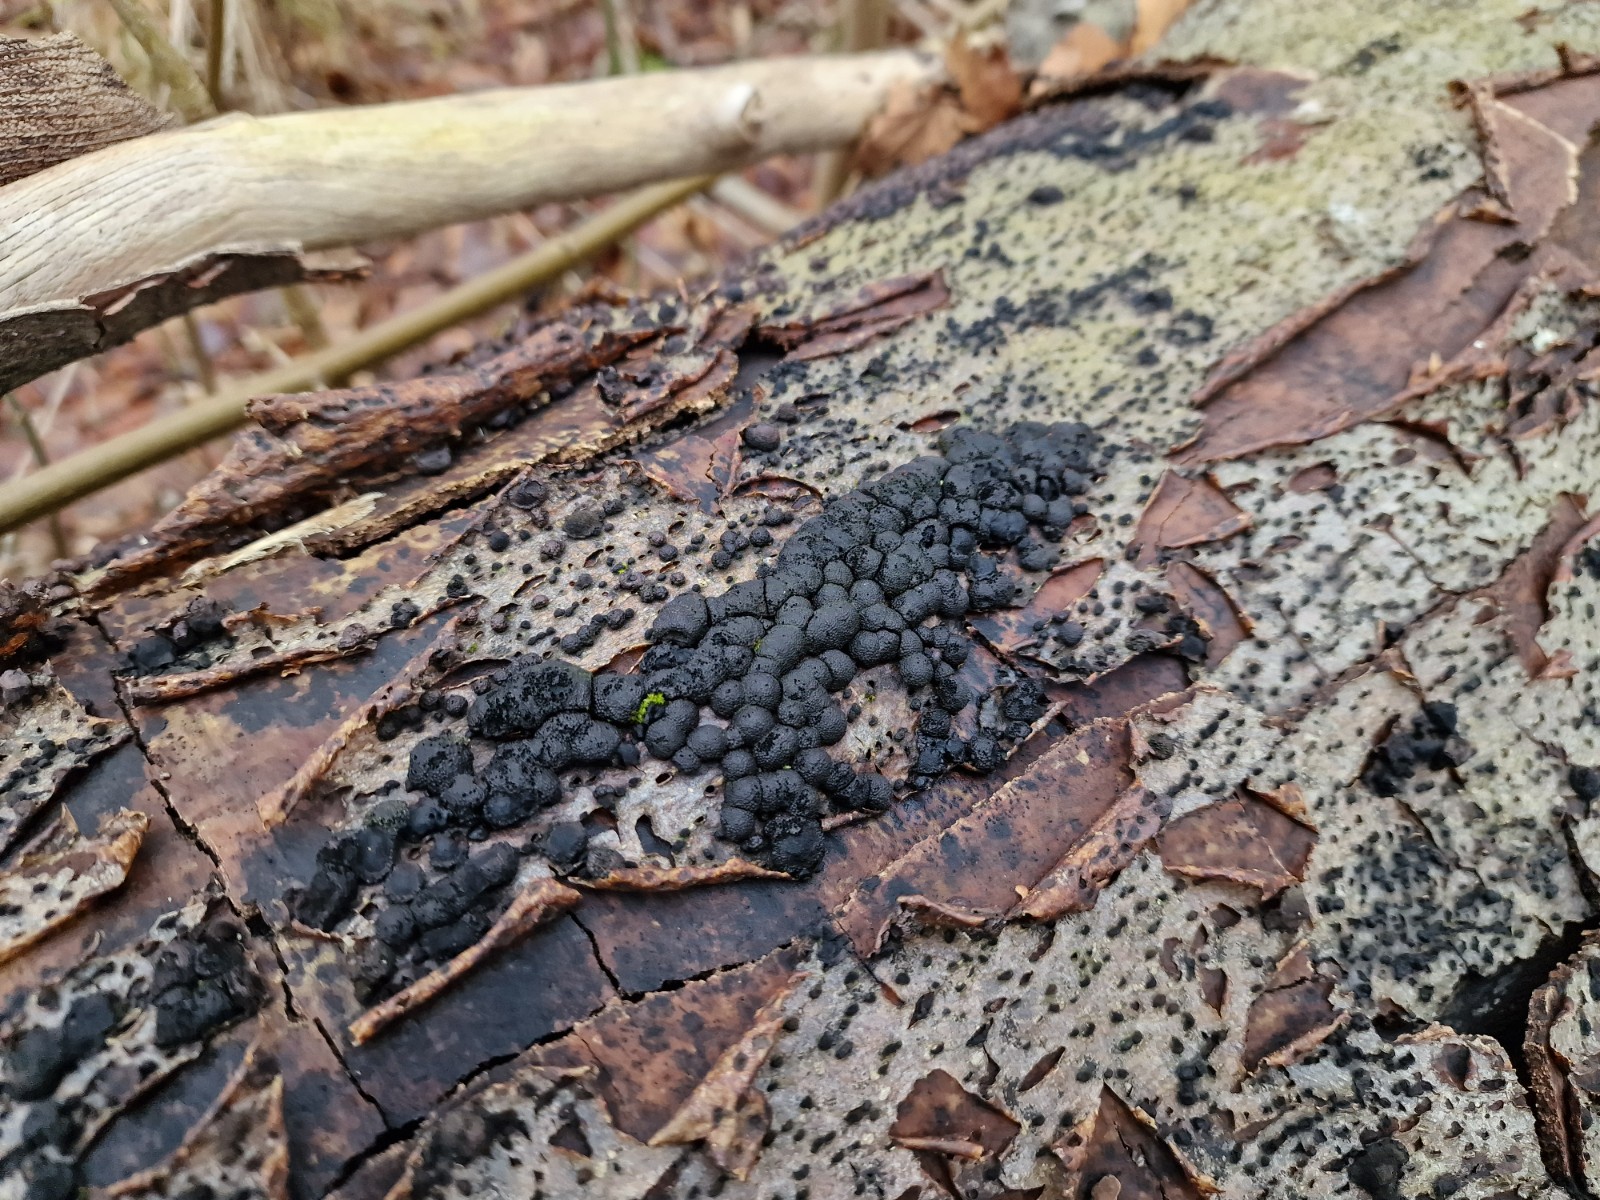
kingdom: Fungi
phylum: Ascomycota
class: Sordariomycetes
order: Xylariales
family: Hypoxylaceae
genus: Jackrogersella
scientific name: Jackrogersella cohaerens
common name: sammenflydende kulbær
